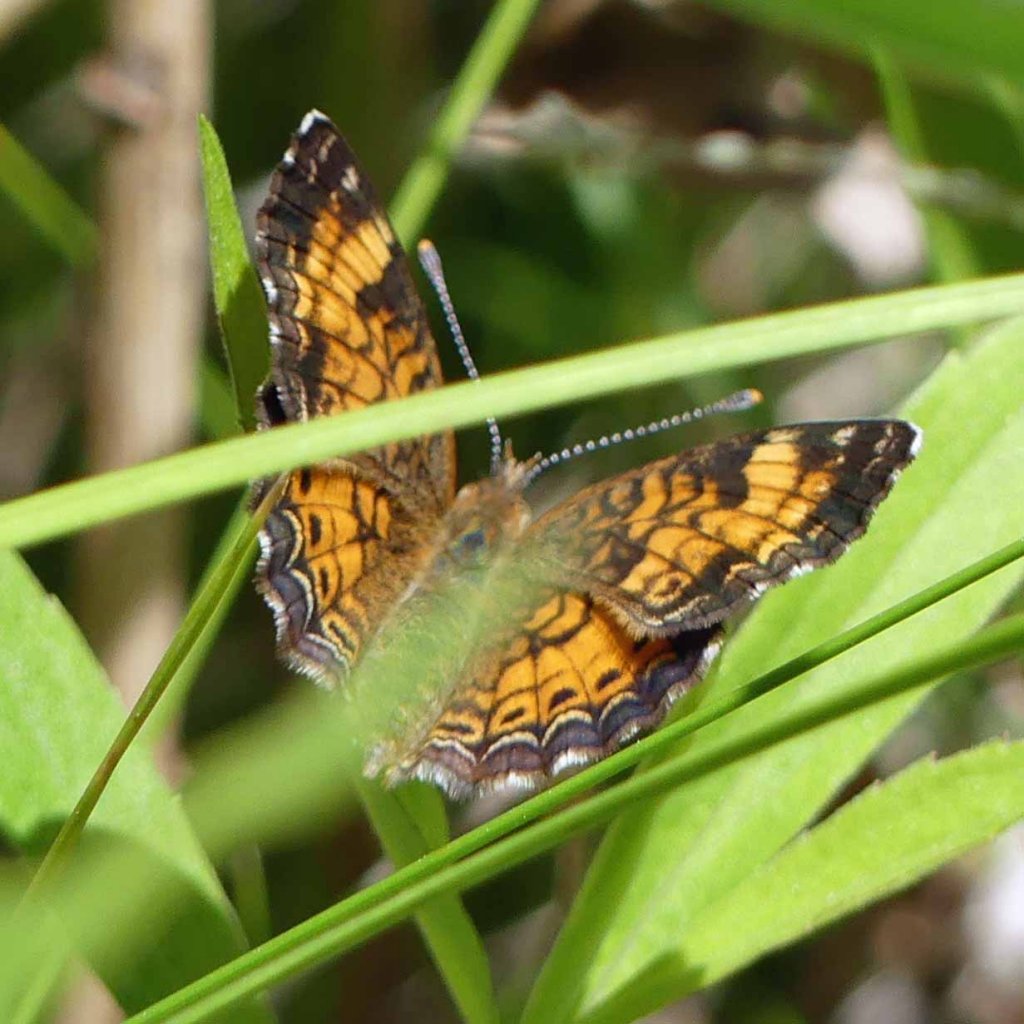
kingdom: Animalia
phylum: Arthropoda
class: Insecta
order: Lepidoptera
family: Nymphalidae
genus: Phyciodes
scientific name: Phyciodes tharos
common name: Pearl Crescent
